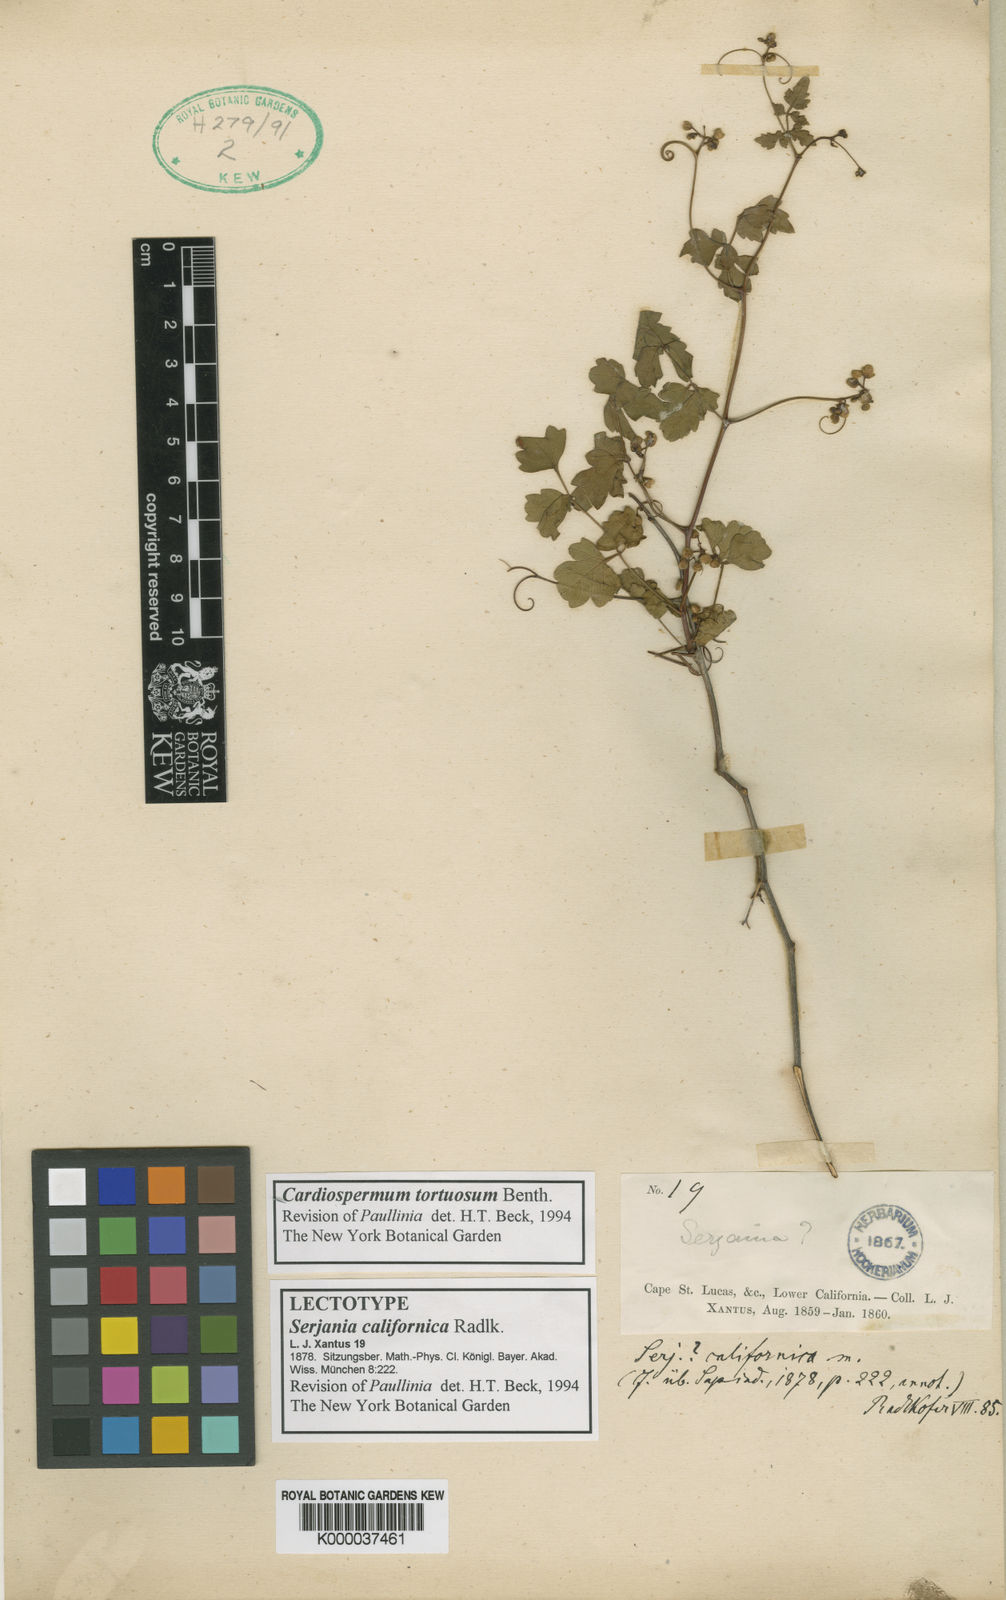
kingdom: Plantae
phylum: Tracheophyta
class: Magnoliopsida
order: Sapindales
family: Sapindaceae
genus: Serjania
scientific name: Serjania tortuosa
